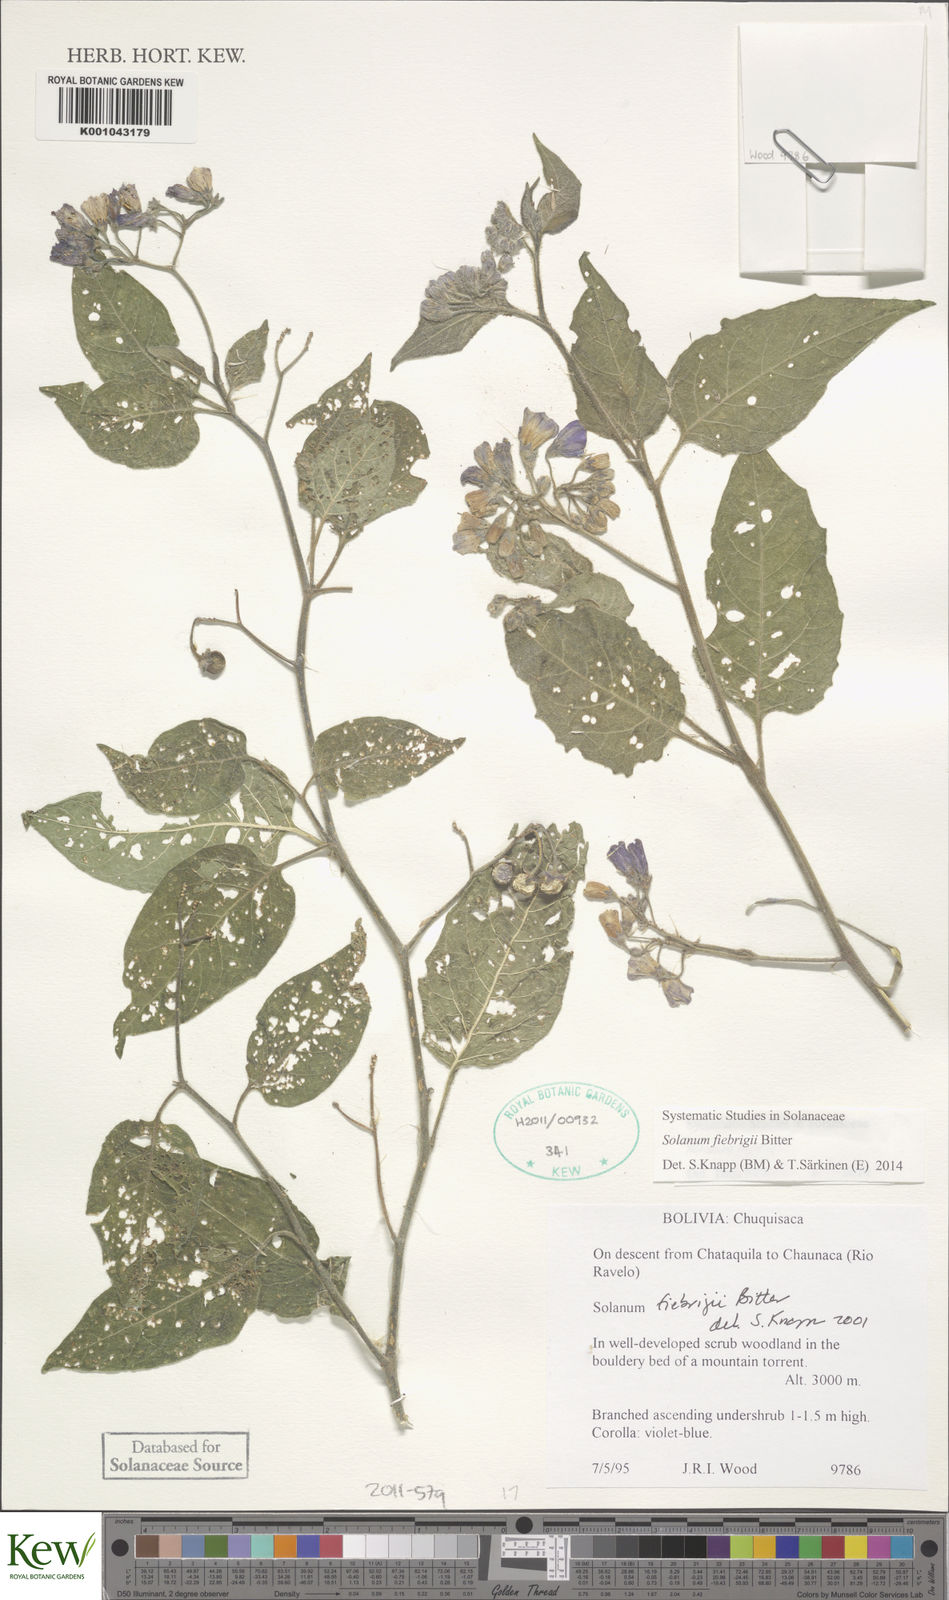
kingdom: Plantae
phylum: Tracheophyta
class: Magnoliopsida
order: Solanales
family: Solanaceae
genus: Solanum
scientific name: Solanum fiebrigii
